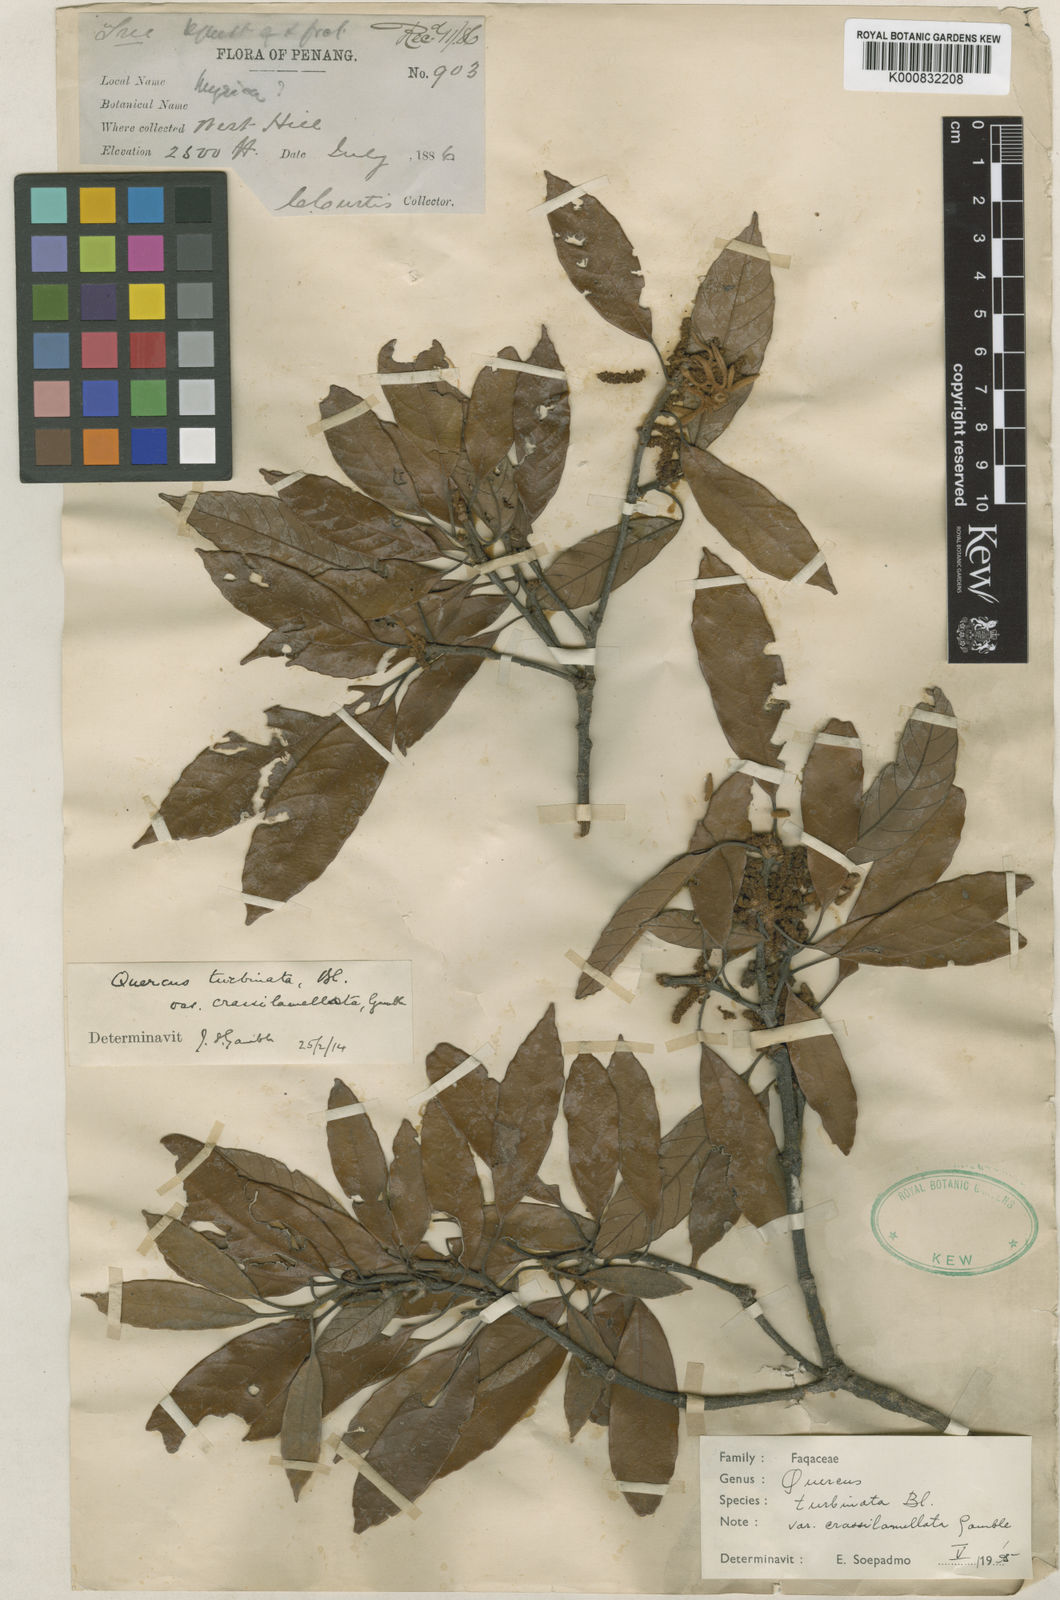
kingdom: Plantae
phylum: Tracheophyta
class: Magnoliopsida
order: Fagales
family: Fagaceae
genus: Quercus
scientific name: Quercus gemelliflora
